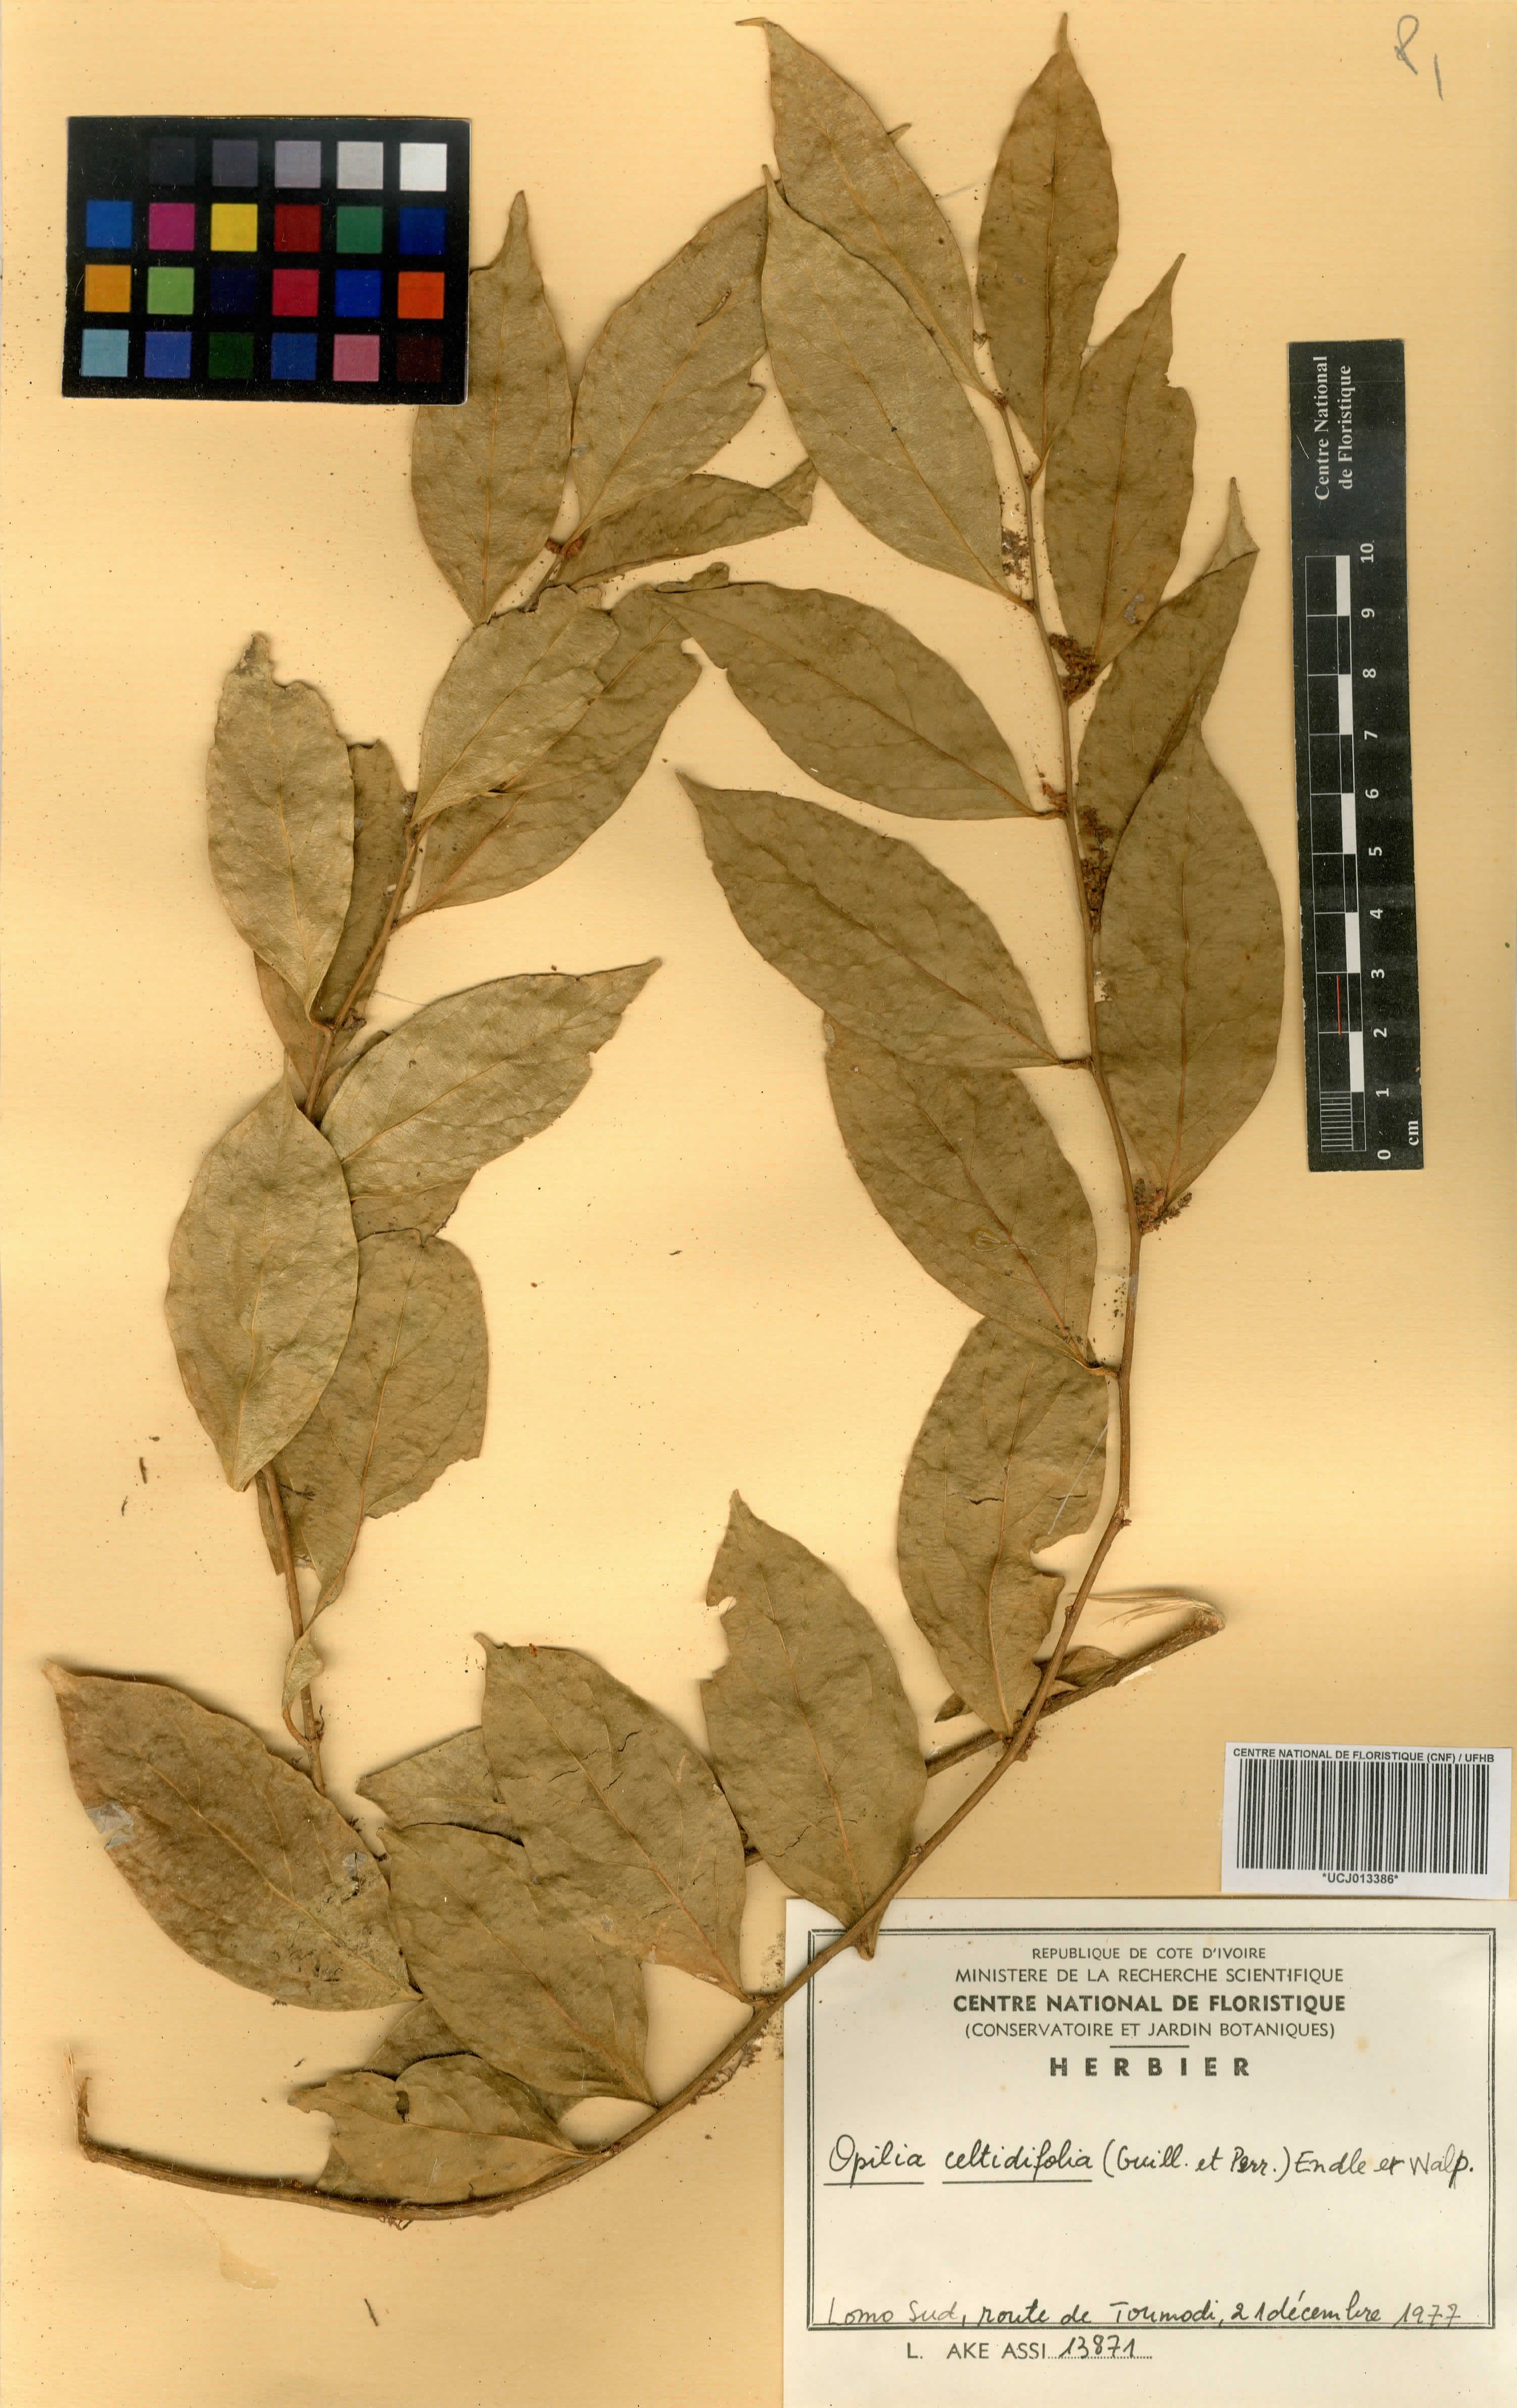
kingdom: Plantae
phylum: Tracheophyta
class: Magnoliopsida
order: Santalales
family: Opiliaceae
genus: Opilia
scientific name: Opilia amentacea
